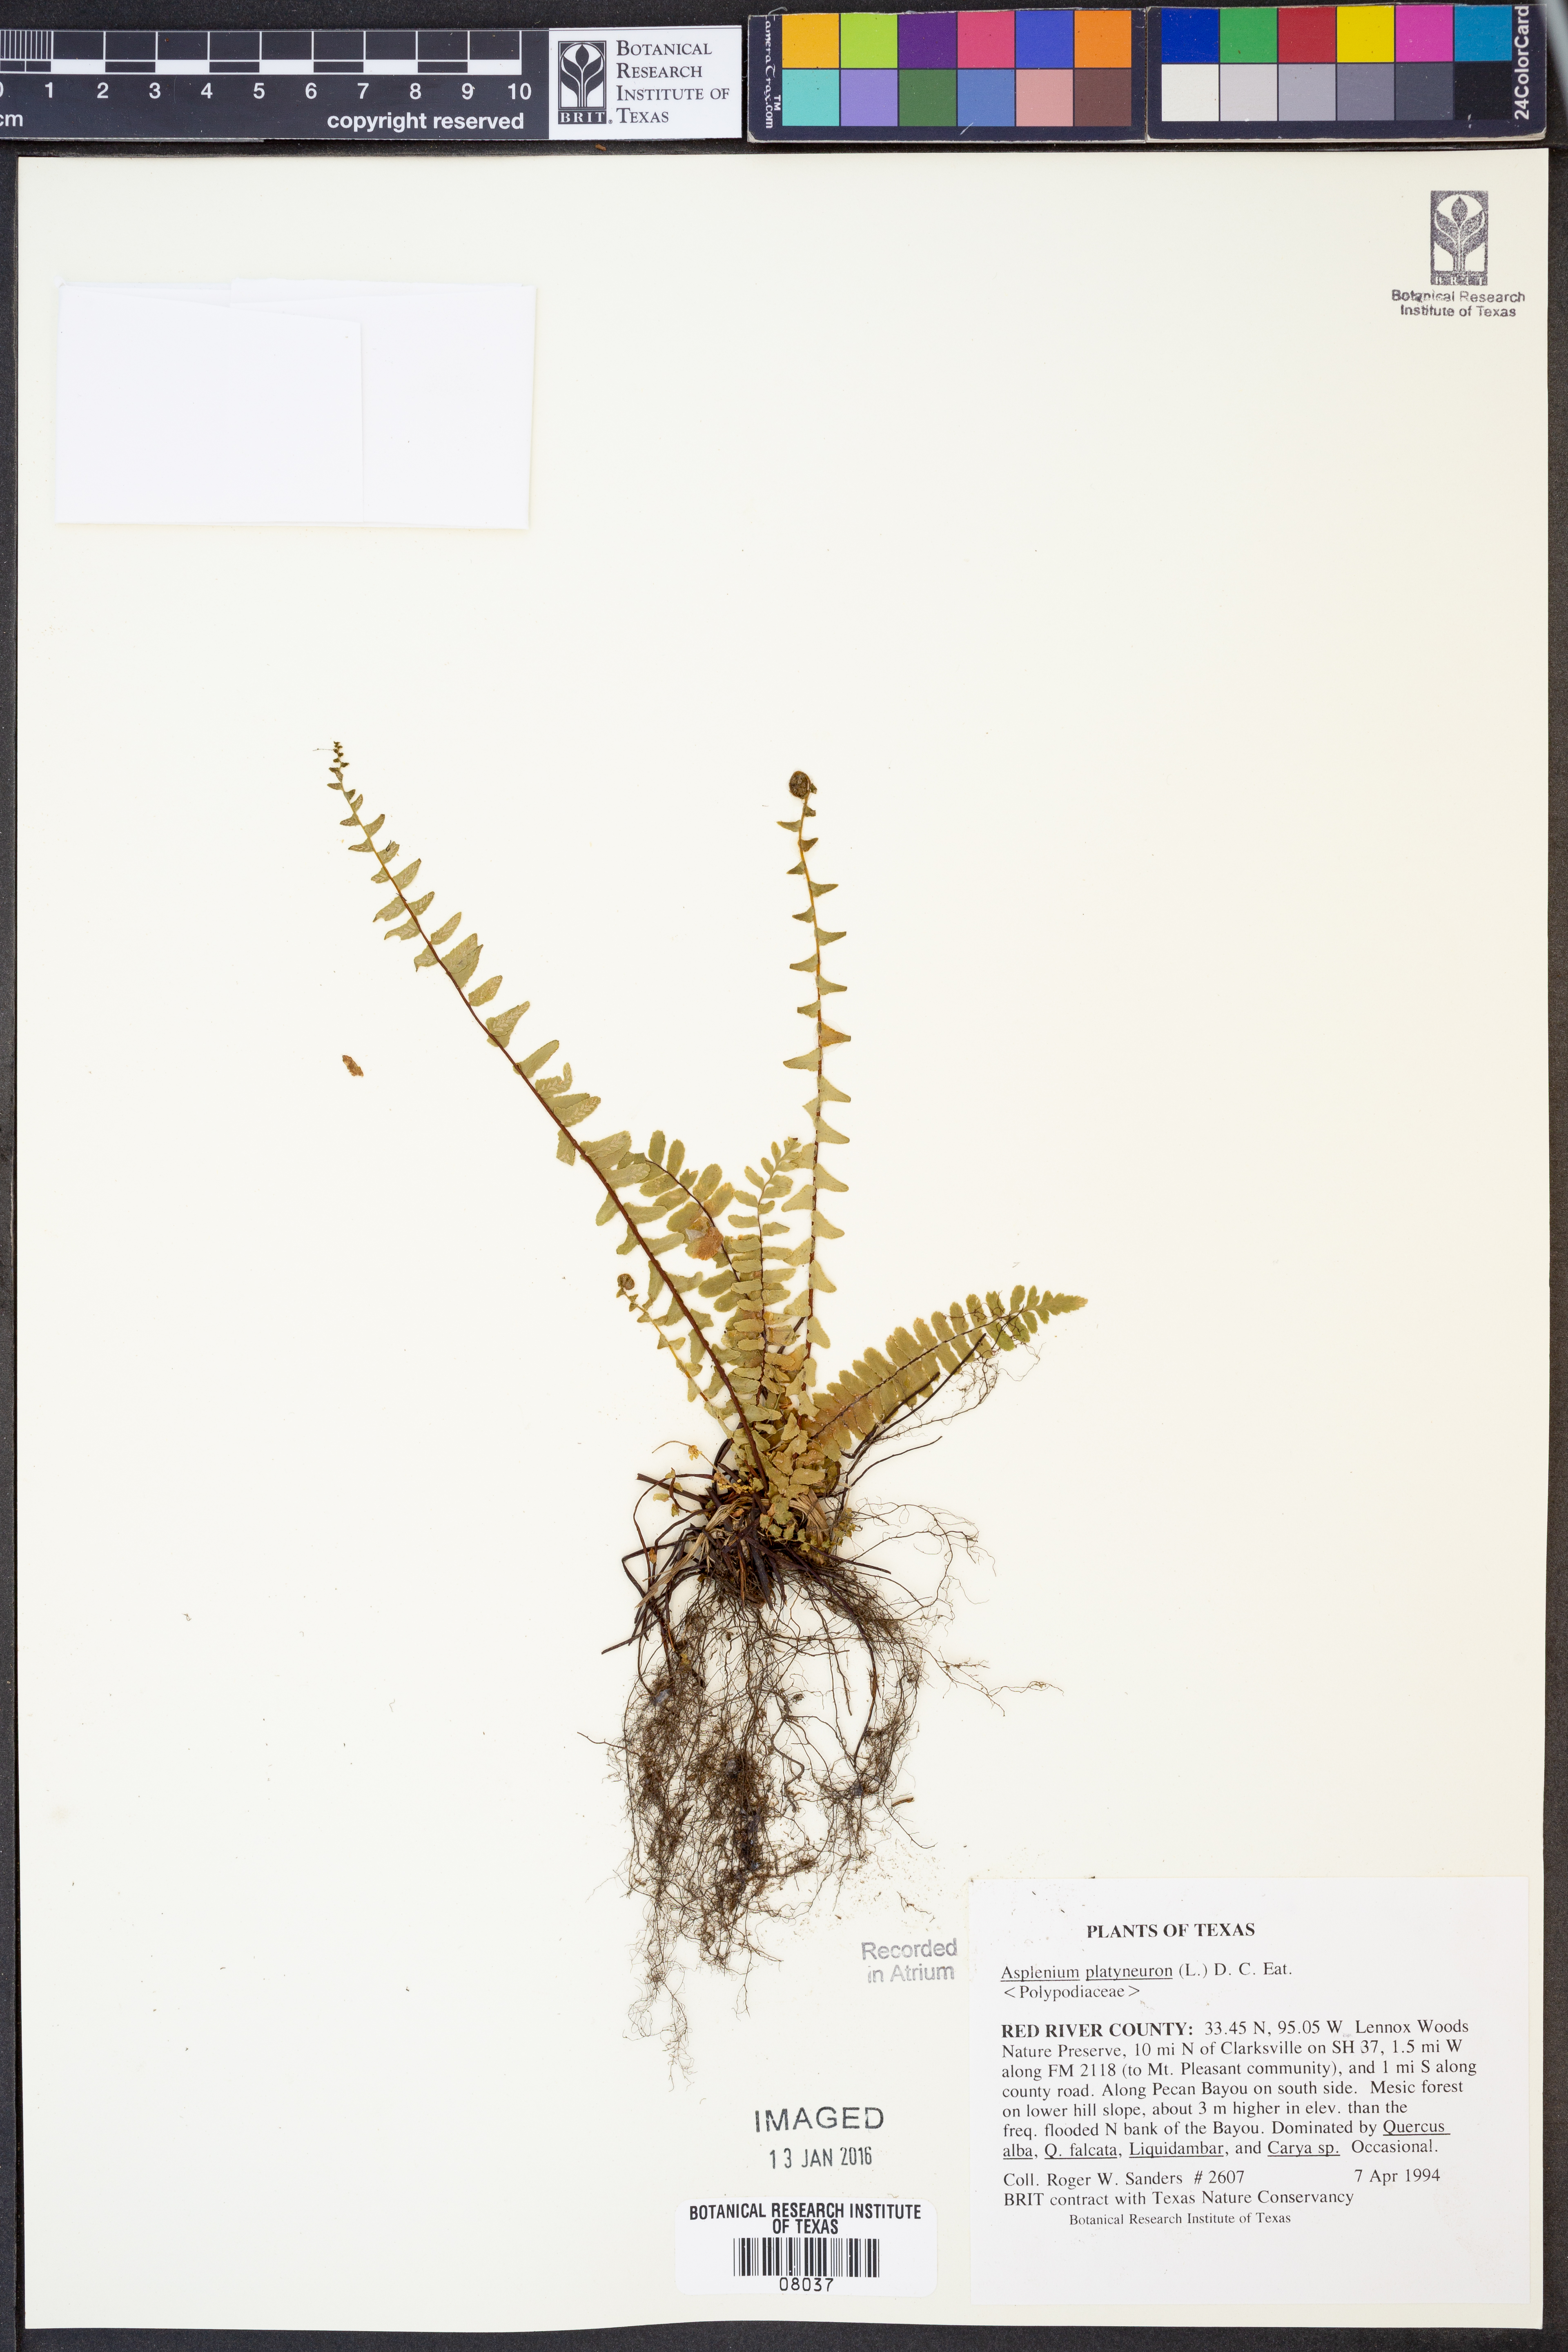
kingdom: Plantae
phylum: Tracheophyta
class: Polypodiopsida
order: Polypodiales
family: Aspleniaceae
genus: Asplenium
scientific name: Asplenium platyneuron
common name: Ebony spleenwort
